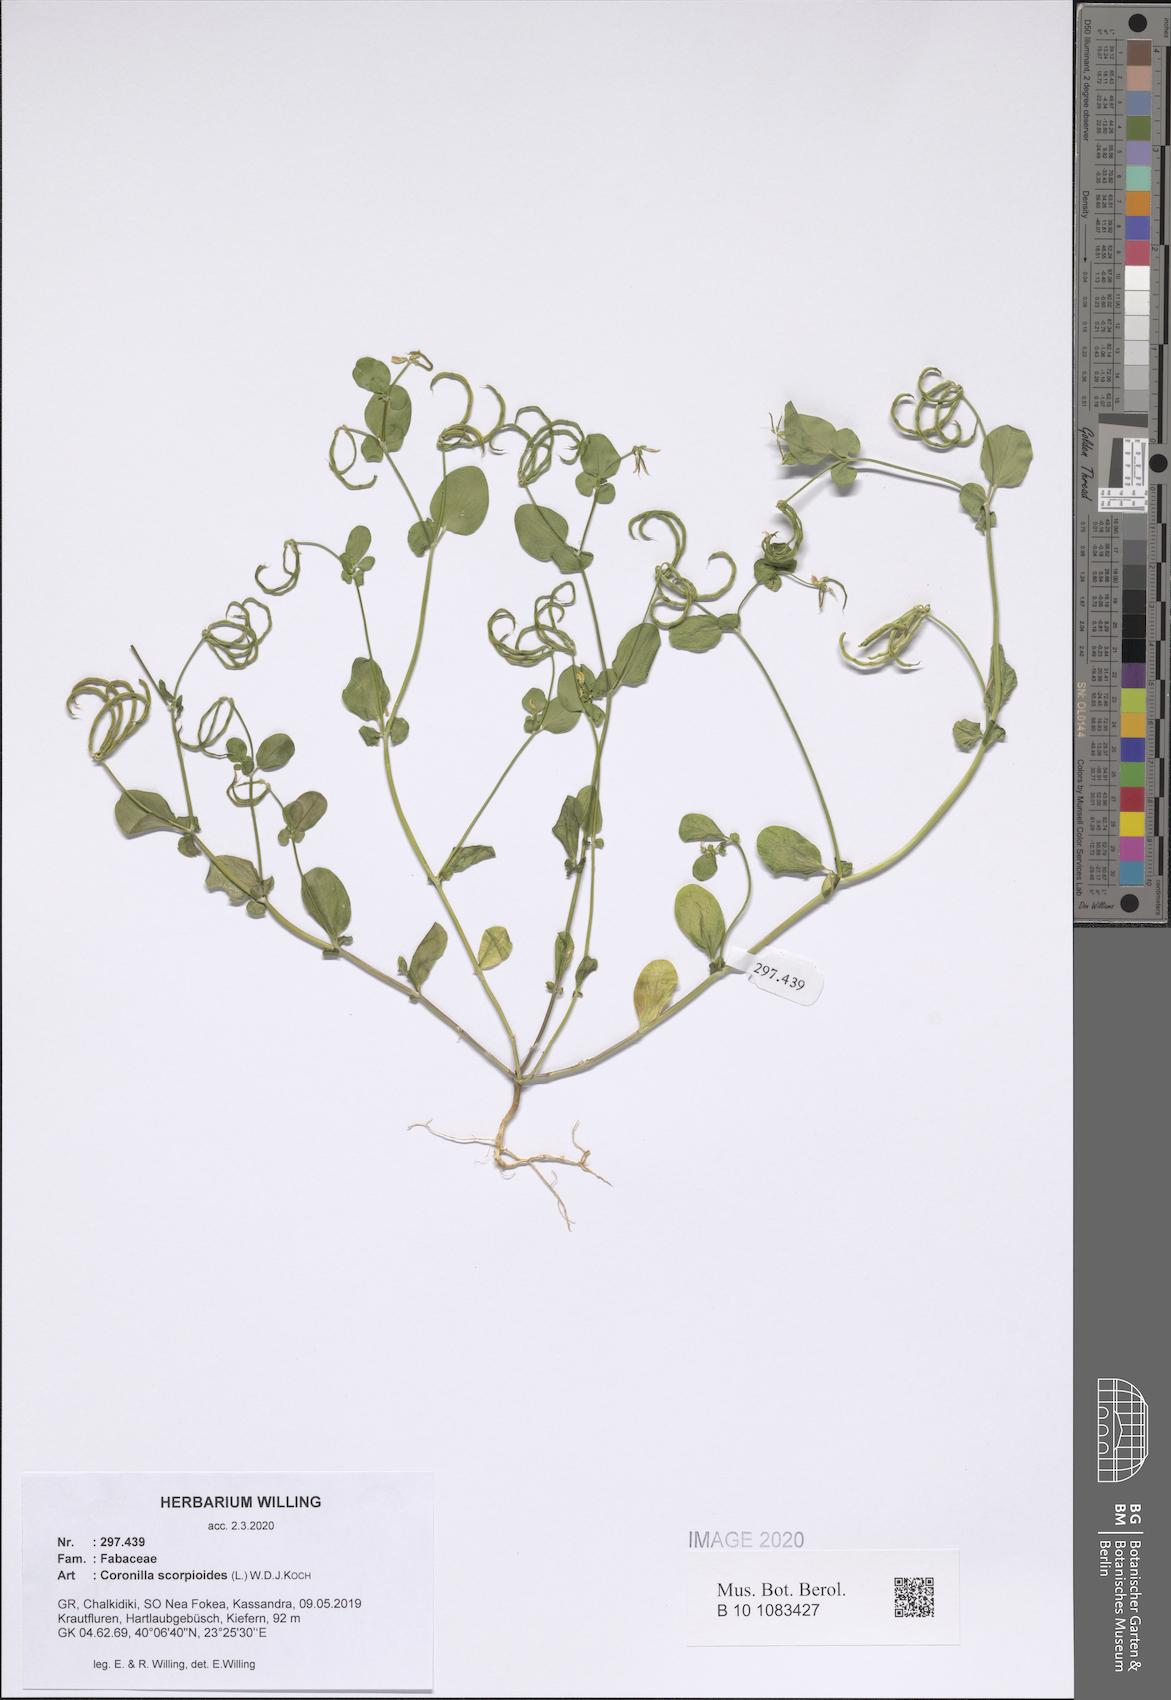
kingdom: Plantae
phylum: Tracheophyta
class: Magnoliopsida
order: Fabales
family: Fabaceae
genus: Coronilla
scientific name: Coronilla scorpioides
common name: Annual scorpion-vetch
